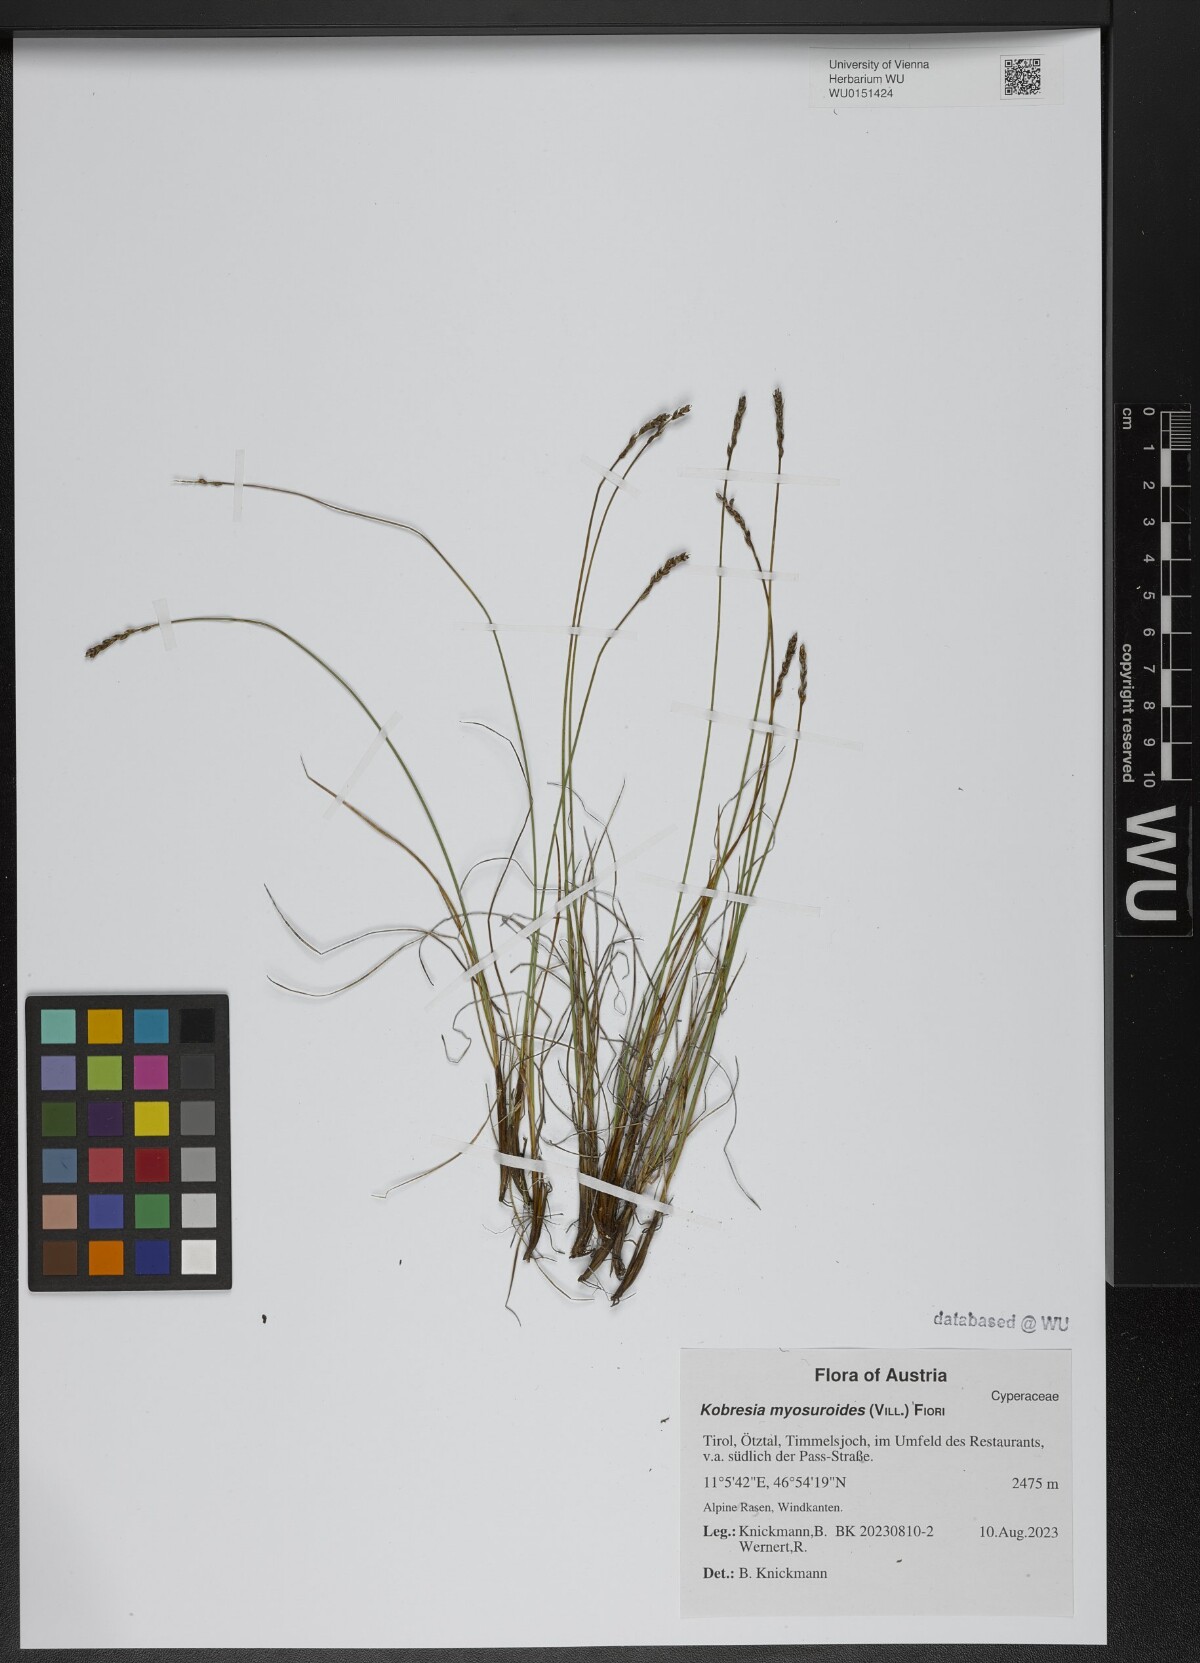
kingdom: Plantae
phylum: Tracheophyta
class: Liliopsida
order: Poales
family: Cyperaceae
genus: Carex
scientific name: Carex myosuroides
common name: Bellard's bog sedge
